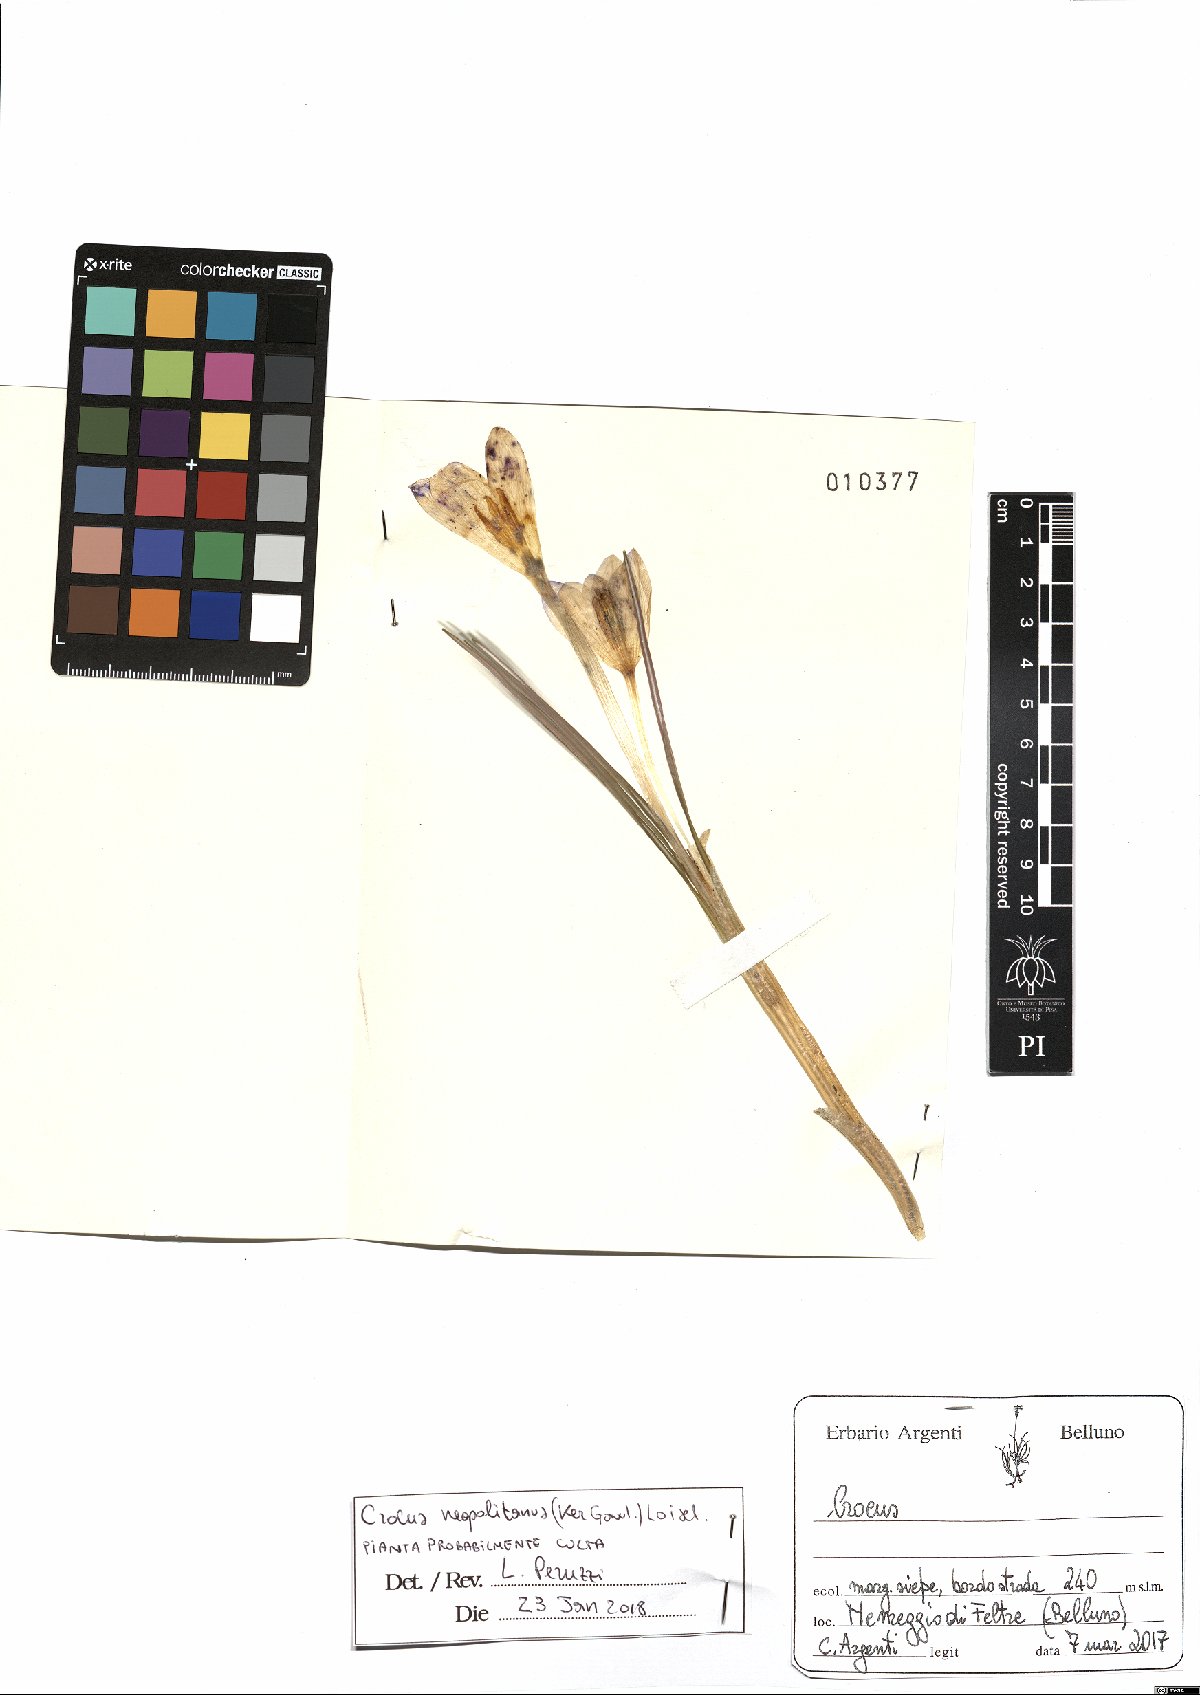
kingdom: Plantae
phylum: Tracheophyta
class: Liliopsida
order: Asparagales
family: Iridaceae
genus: Crocus
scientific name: Crocus neapolitanus
